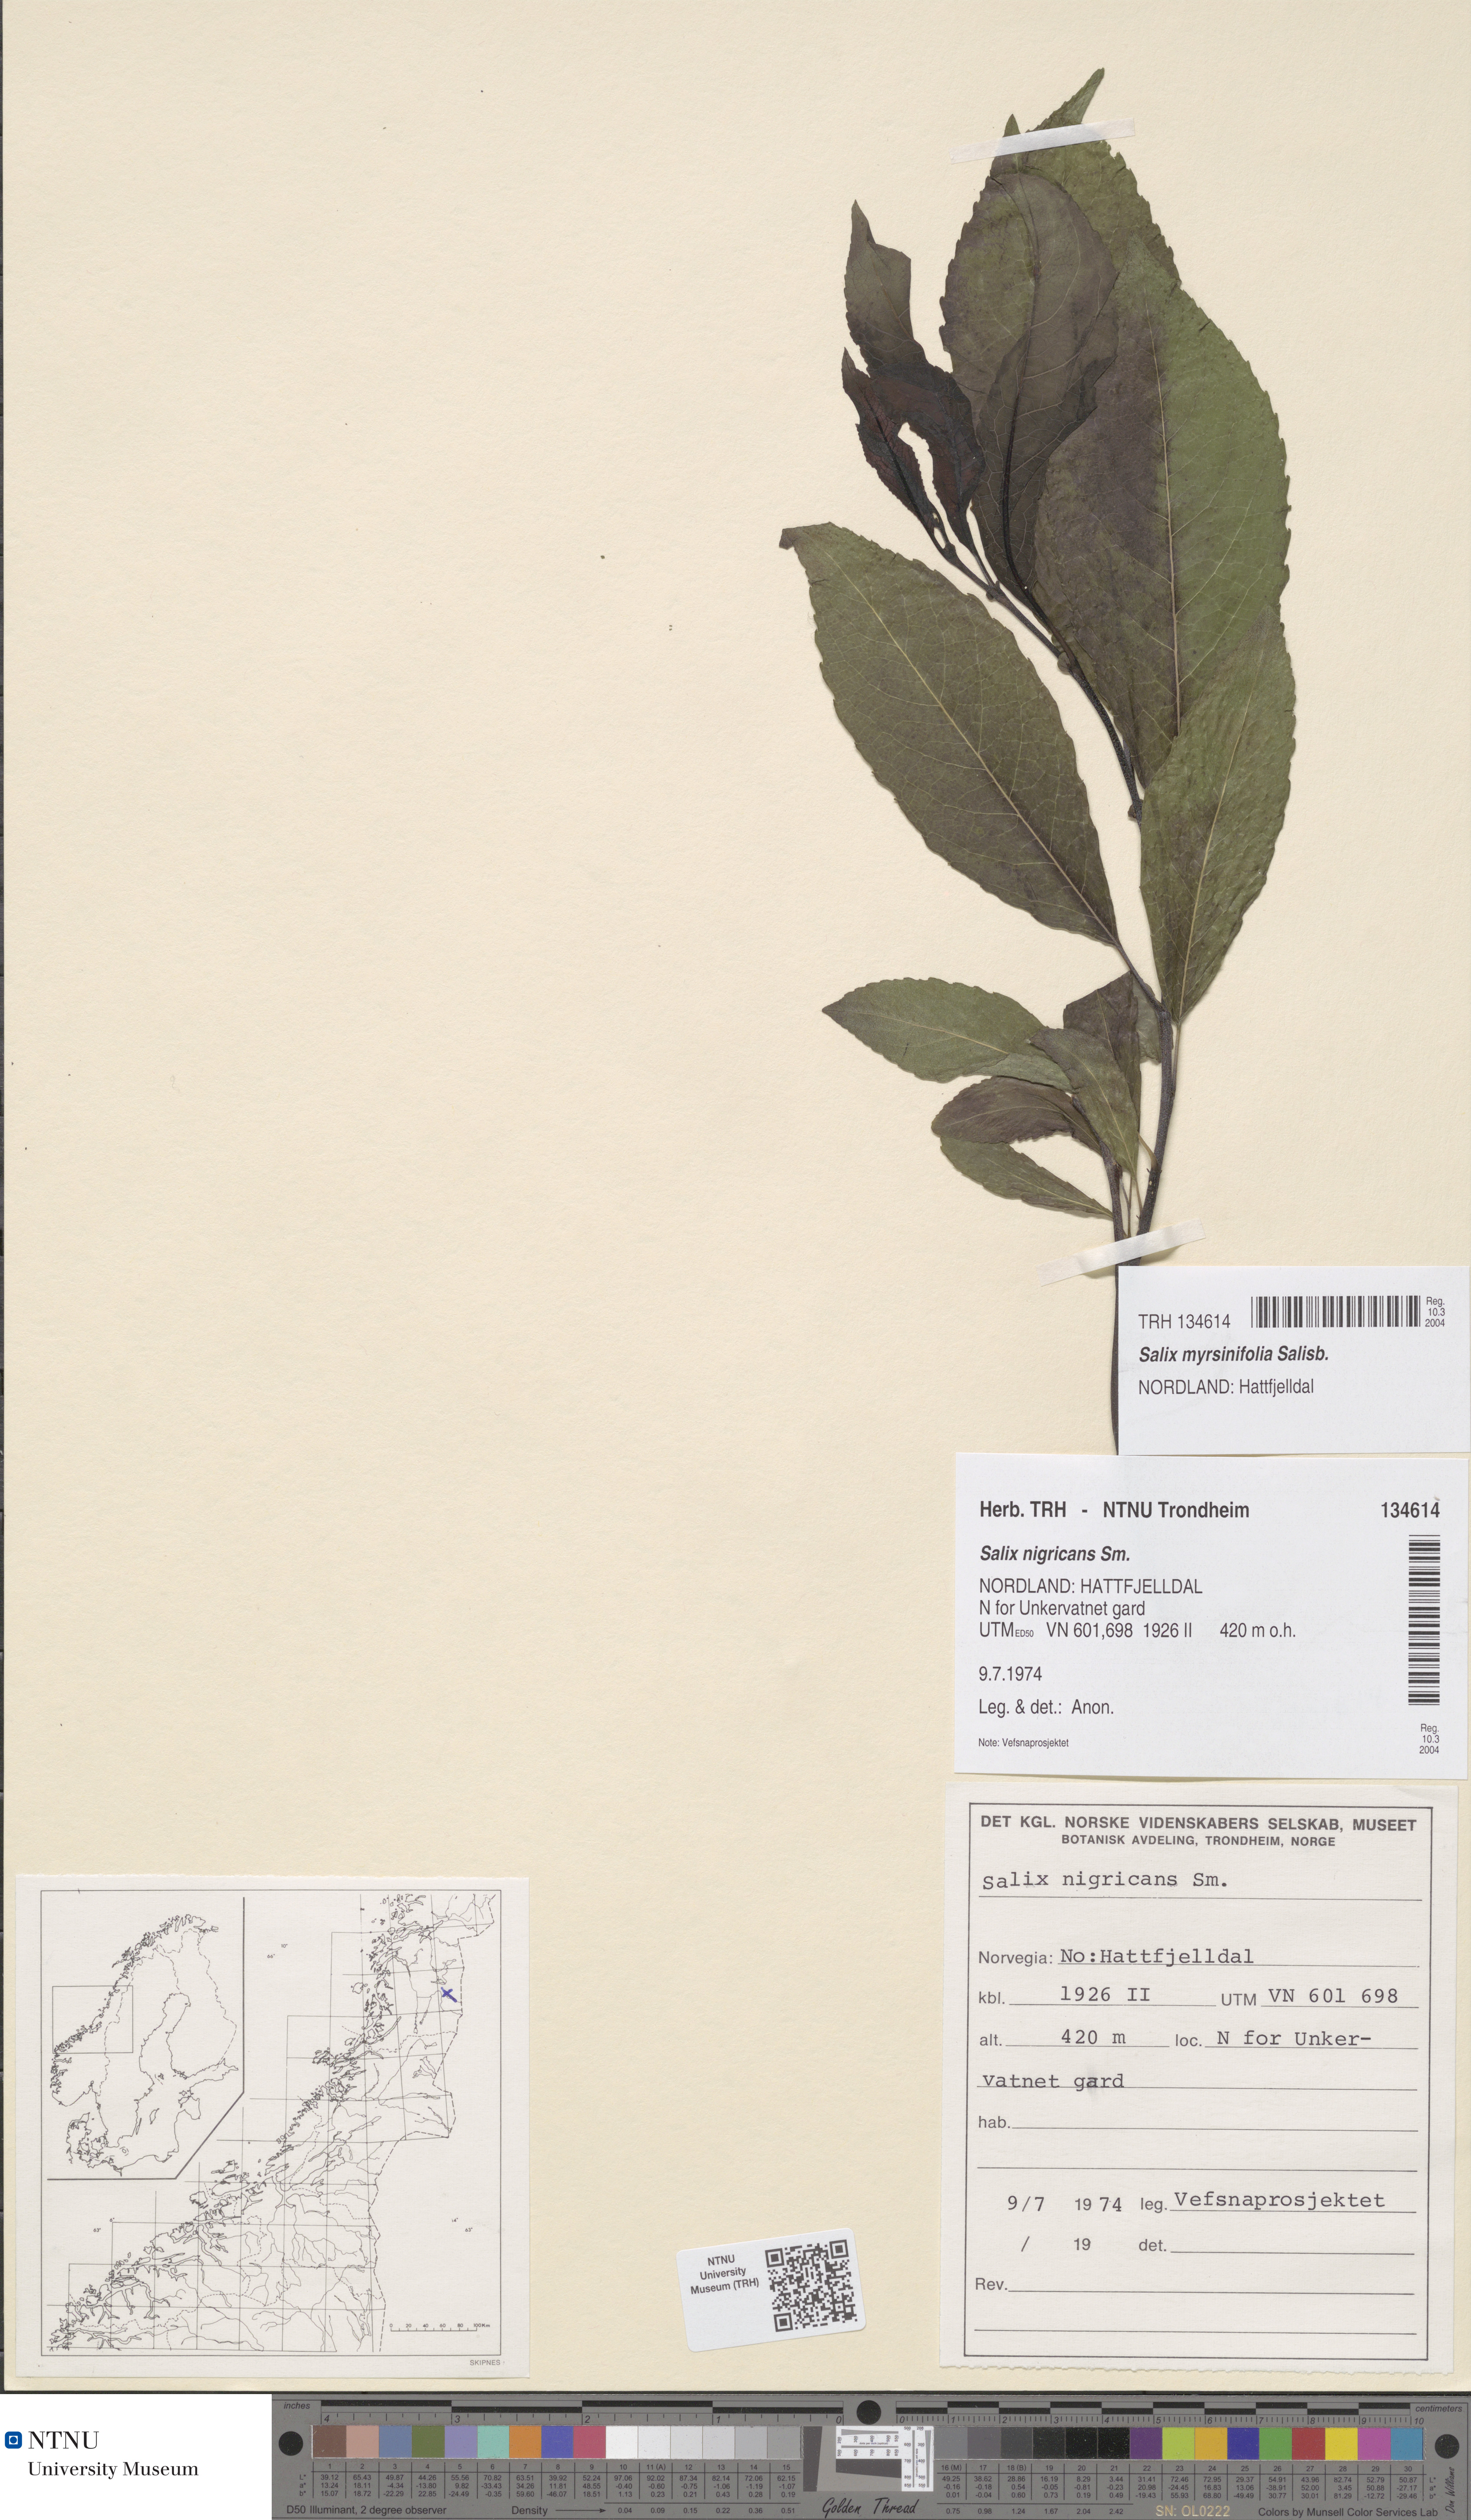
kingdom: Plantae
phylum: Tracheophyta
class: Magnoliopsida
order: Malpighiales
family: Salicaceae
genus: Salix
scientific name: Salix myrsinifolia
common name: Dark-leaved willow
